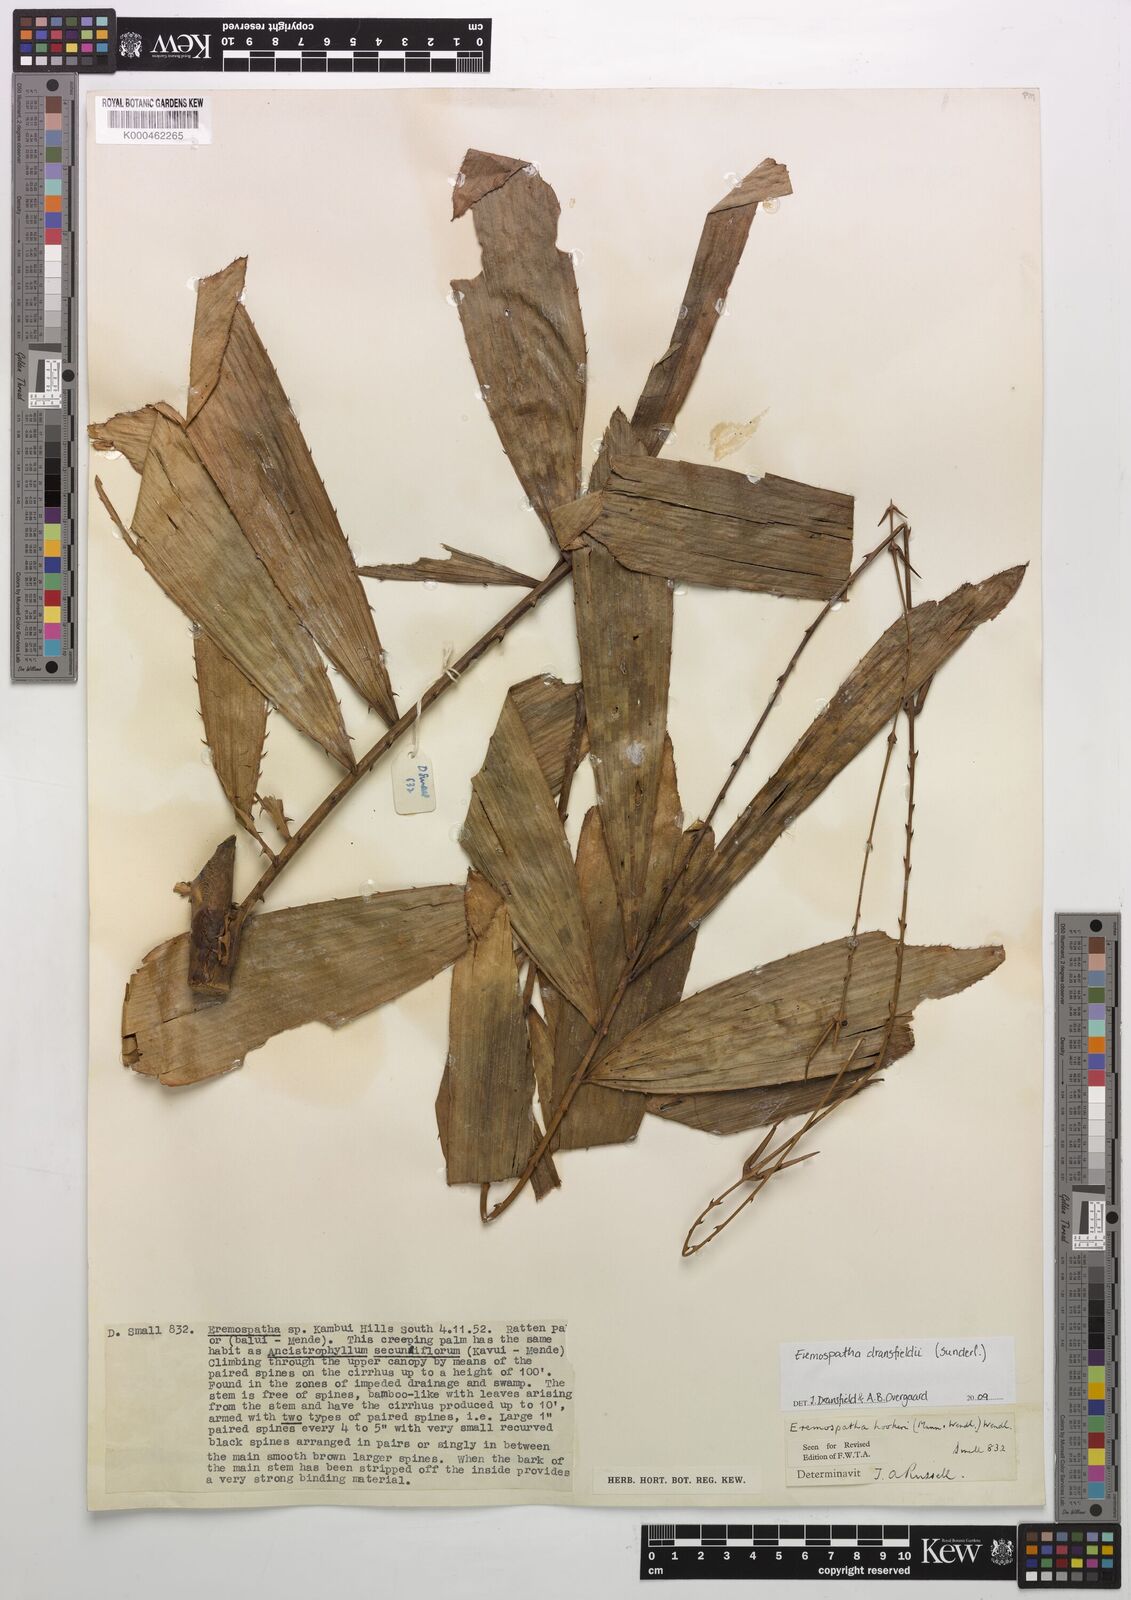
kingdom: Plantae
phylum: Tracheophyta
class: Liliopsida
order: Arecales
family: Arecaceae
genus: Eremospatha
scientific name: Eremospatha hookeri
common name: Rattan
